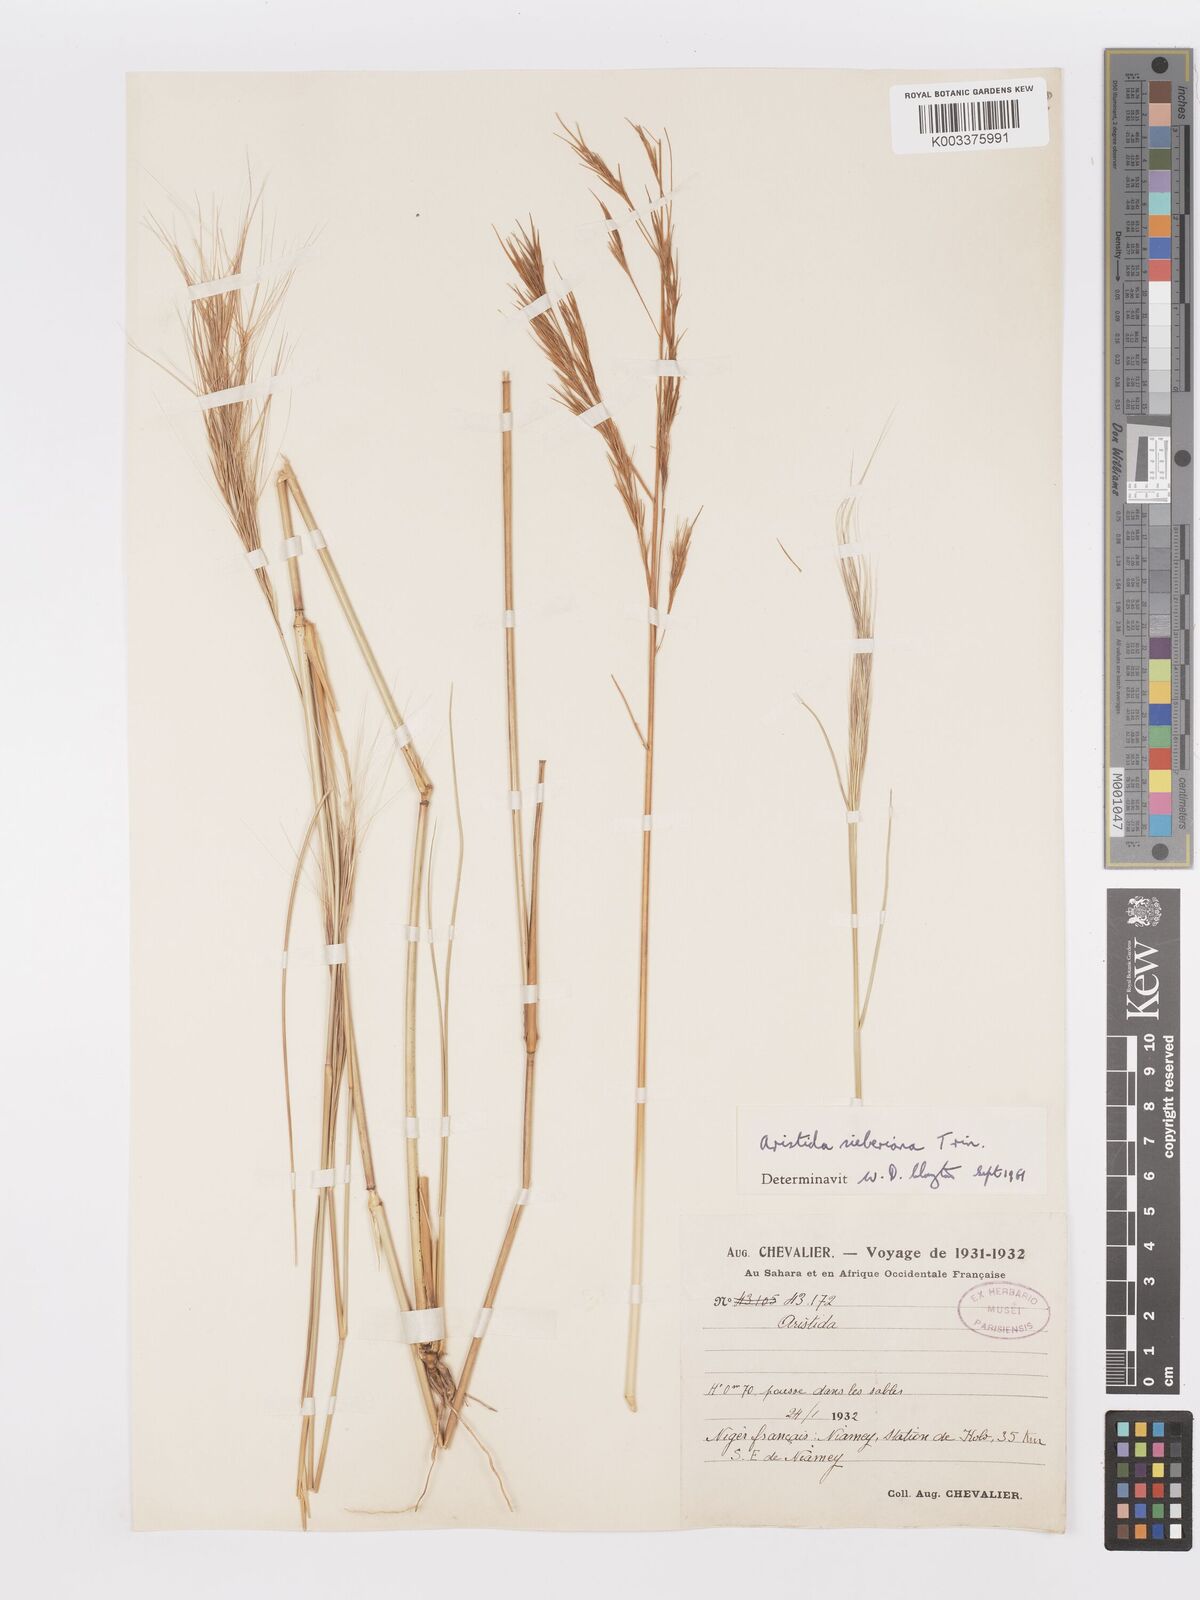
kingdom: Plantae
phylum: Tracheophyta
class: Liliopsida
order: Poales
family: Poaceae
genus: Aristida
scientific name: Aristida sieberiana
